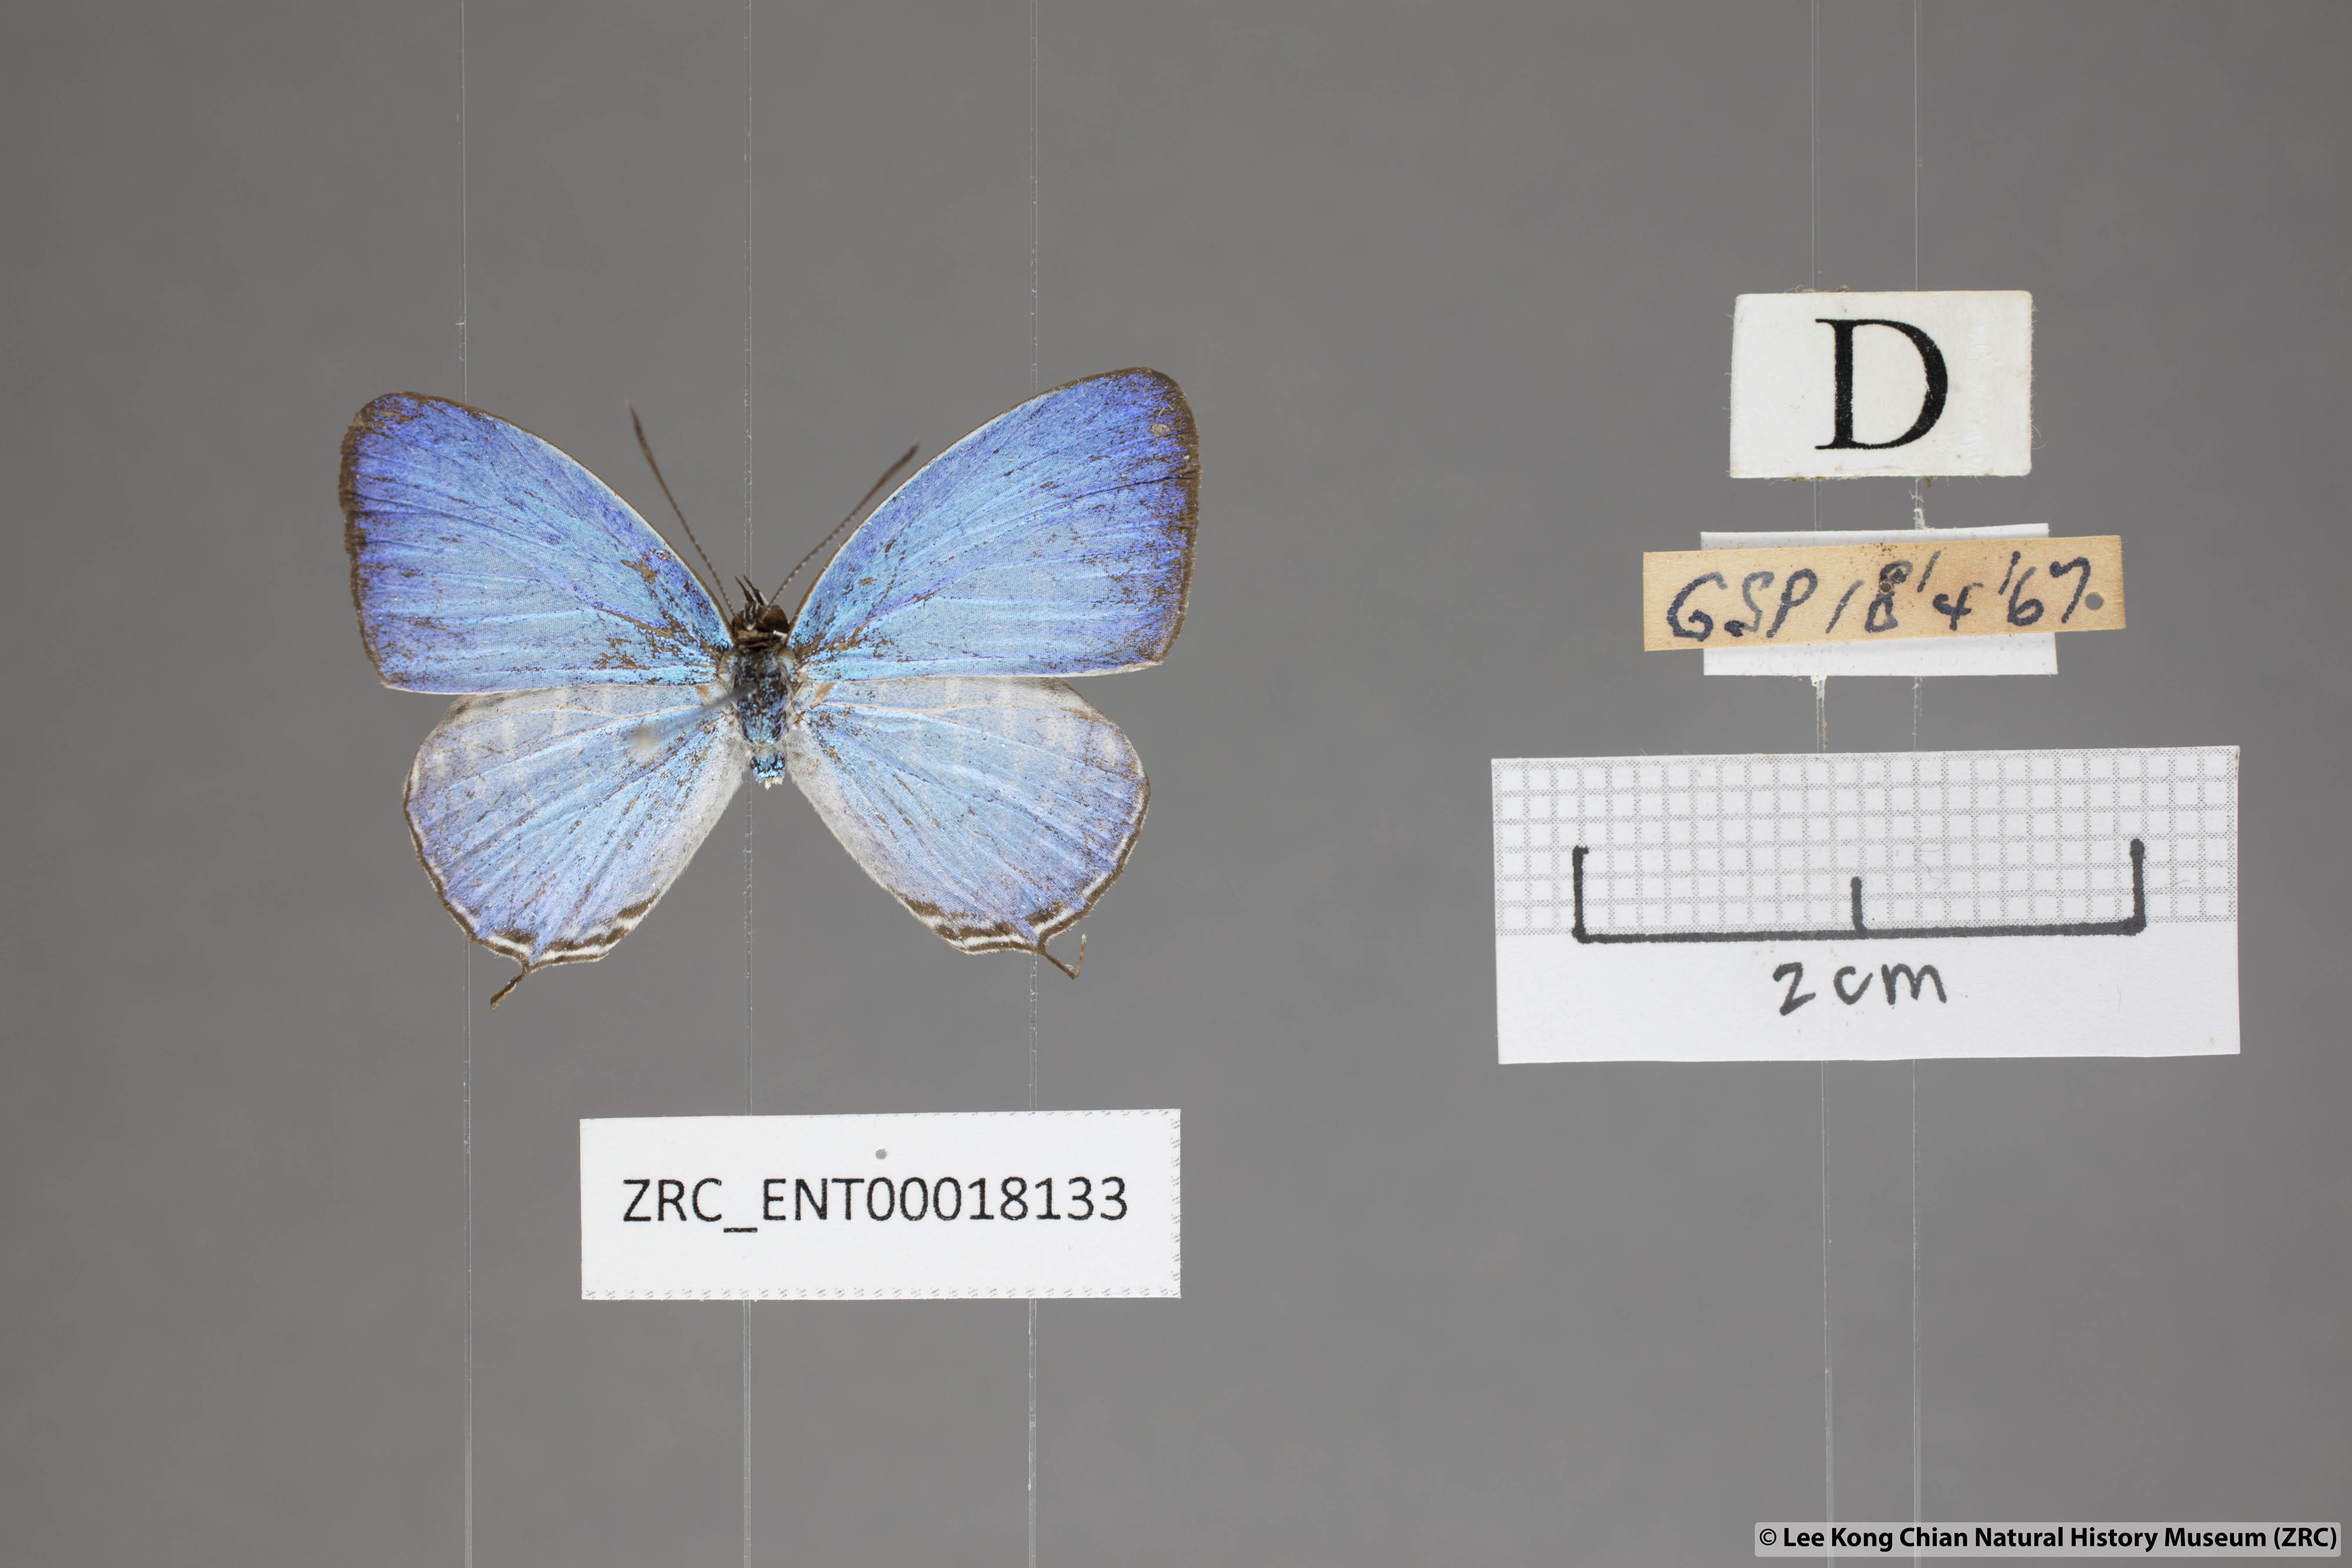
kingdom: Animalia
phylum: Arthropoda
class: Insecta
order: Lepidoptera
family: Lycaenidae
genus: Jamides
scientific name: Jamides malaccanus
